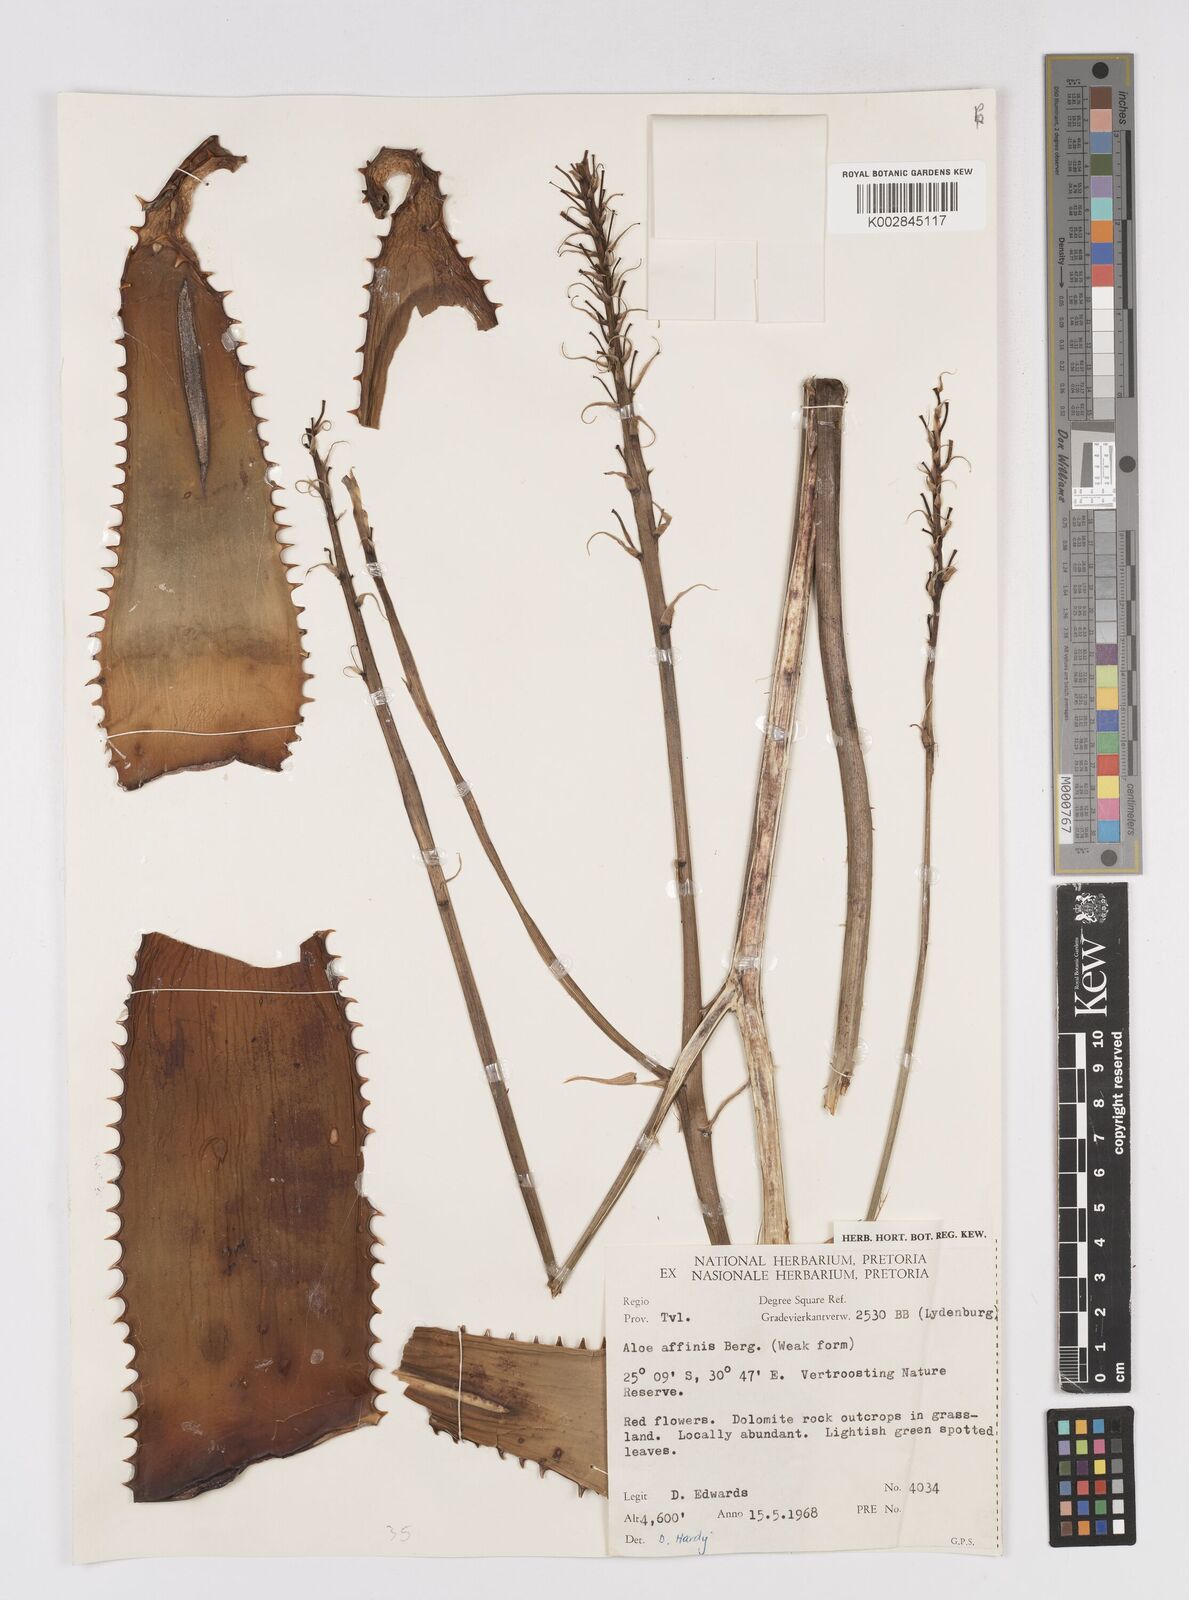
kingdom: Plantae
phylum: Tracheophyta
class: Liliopsida
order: Asparagales
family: Asphodelaceae
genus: Aloe
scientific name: Aloe affinis
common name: Spotted aloe
